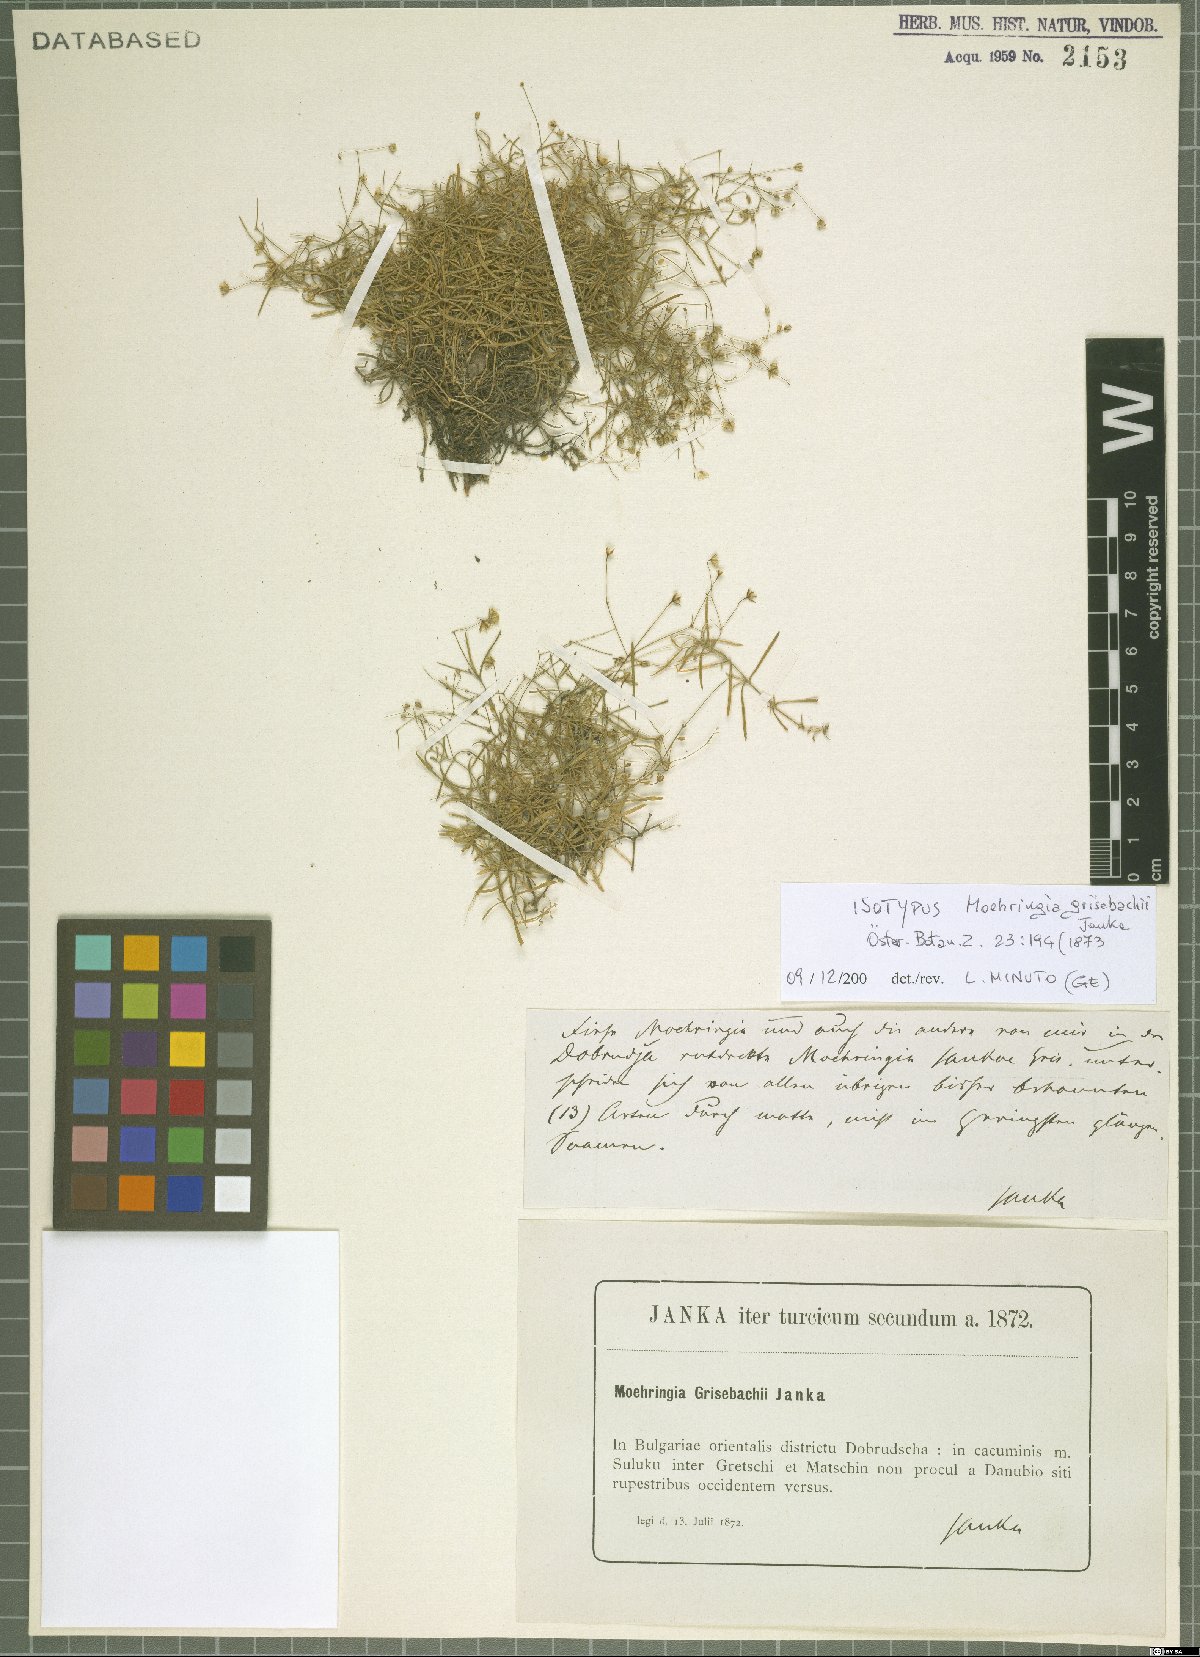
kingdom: Plantae
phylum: Tracheophyta
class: Magnoliopsida
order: Caryophyllales
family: Caryophyllaceae
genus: Moehringia
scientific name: Moehringia grisebachii
